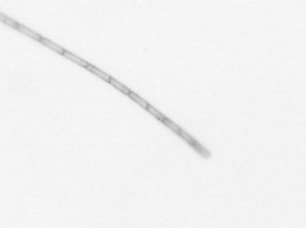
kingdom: Chromista
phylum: Ochrophyta
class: Bacillariophyceae
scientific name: Bacillariophyceae
